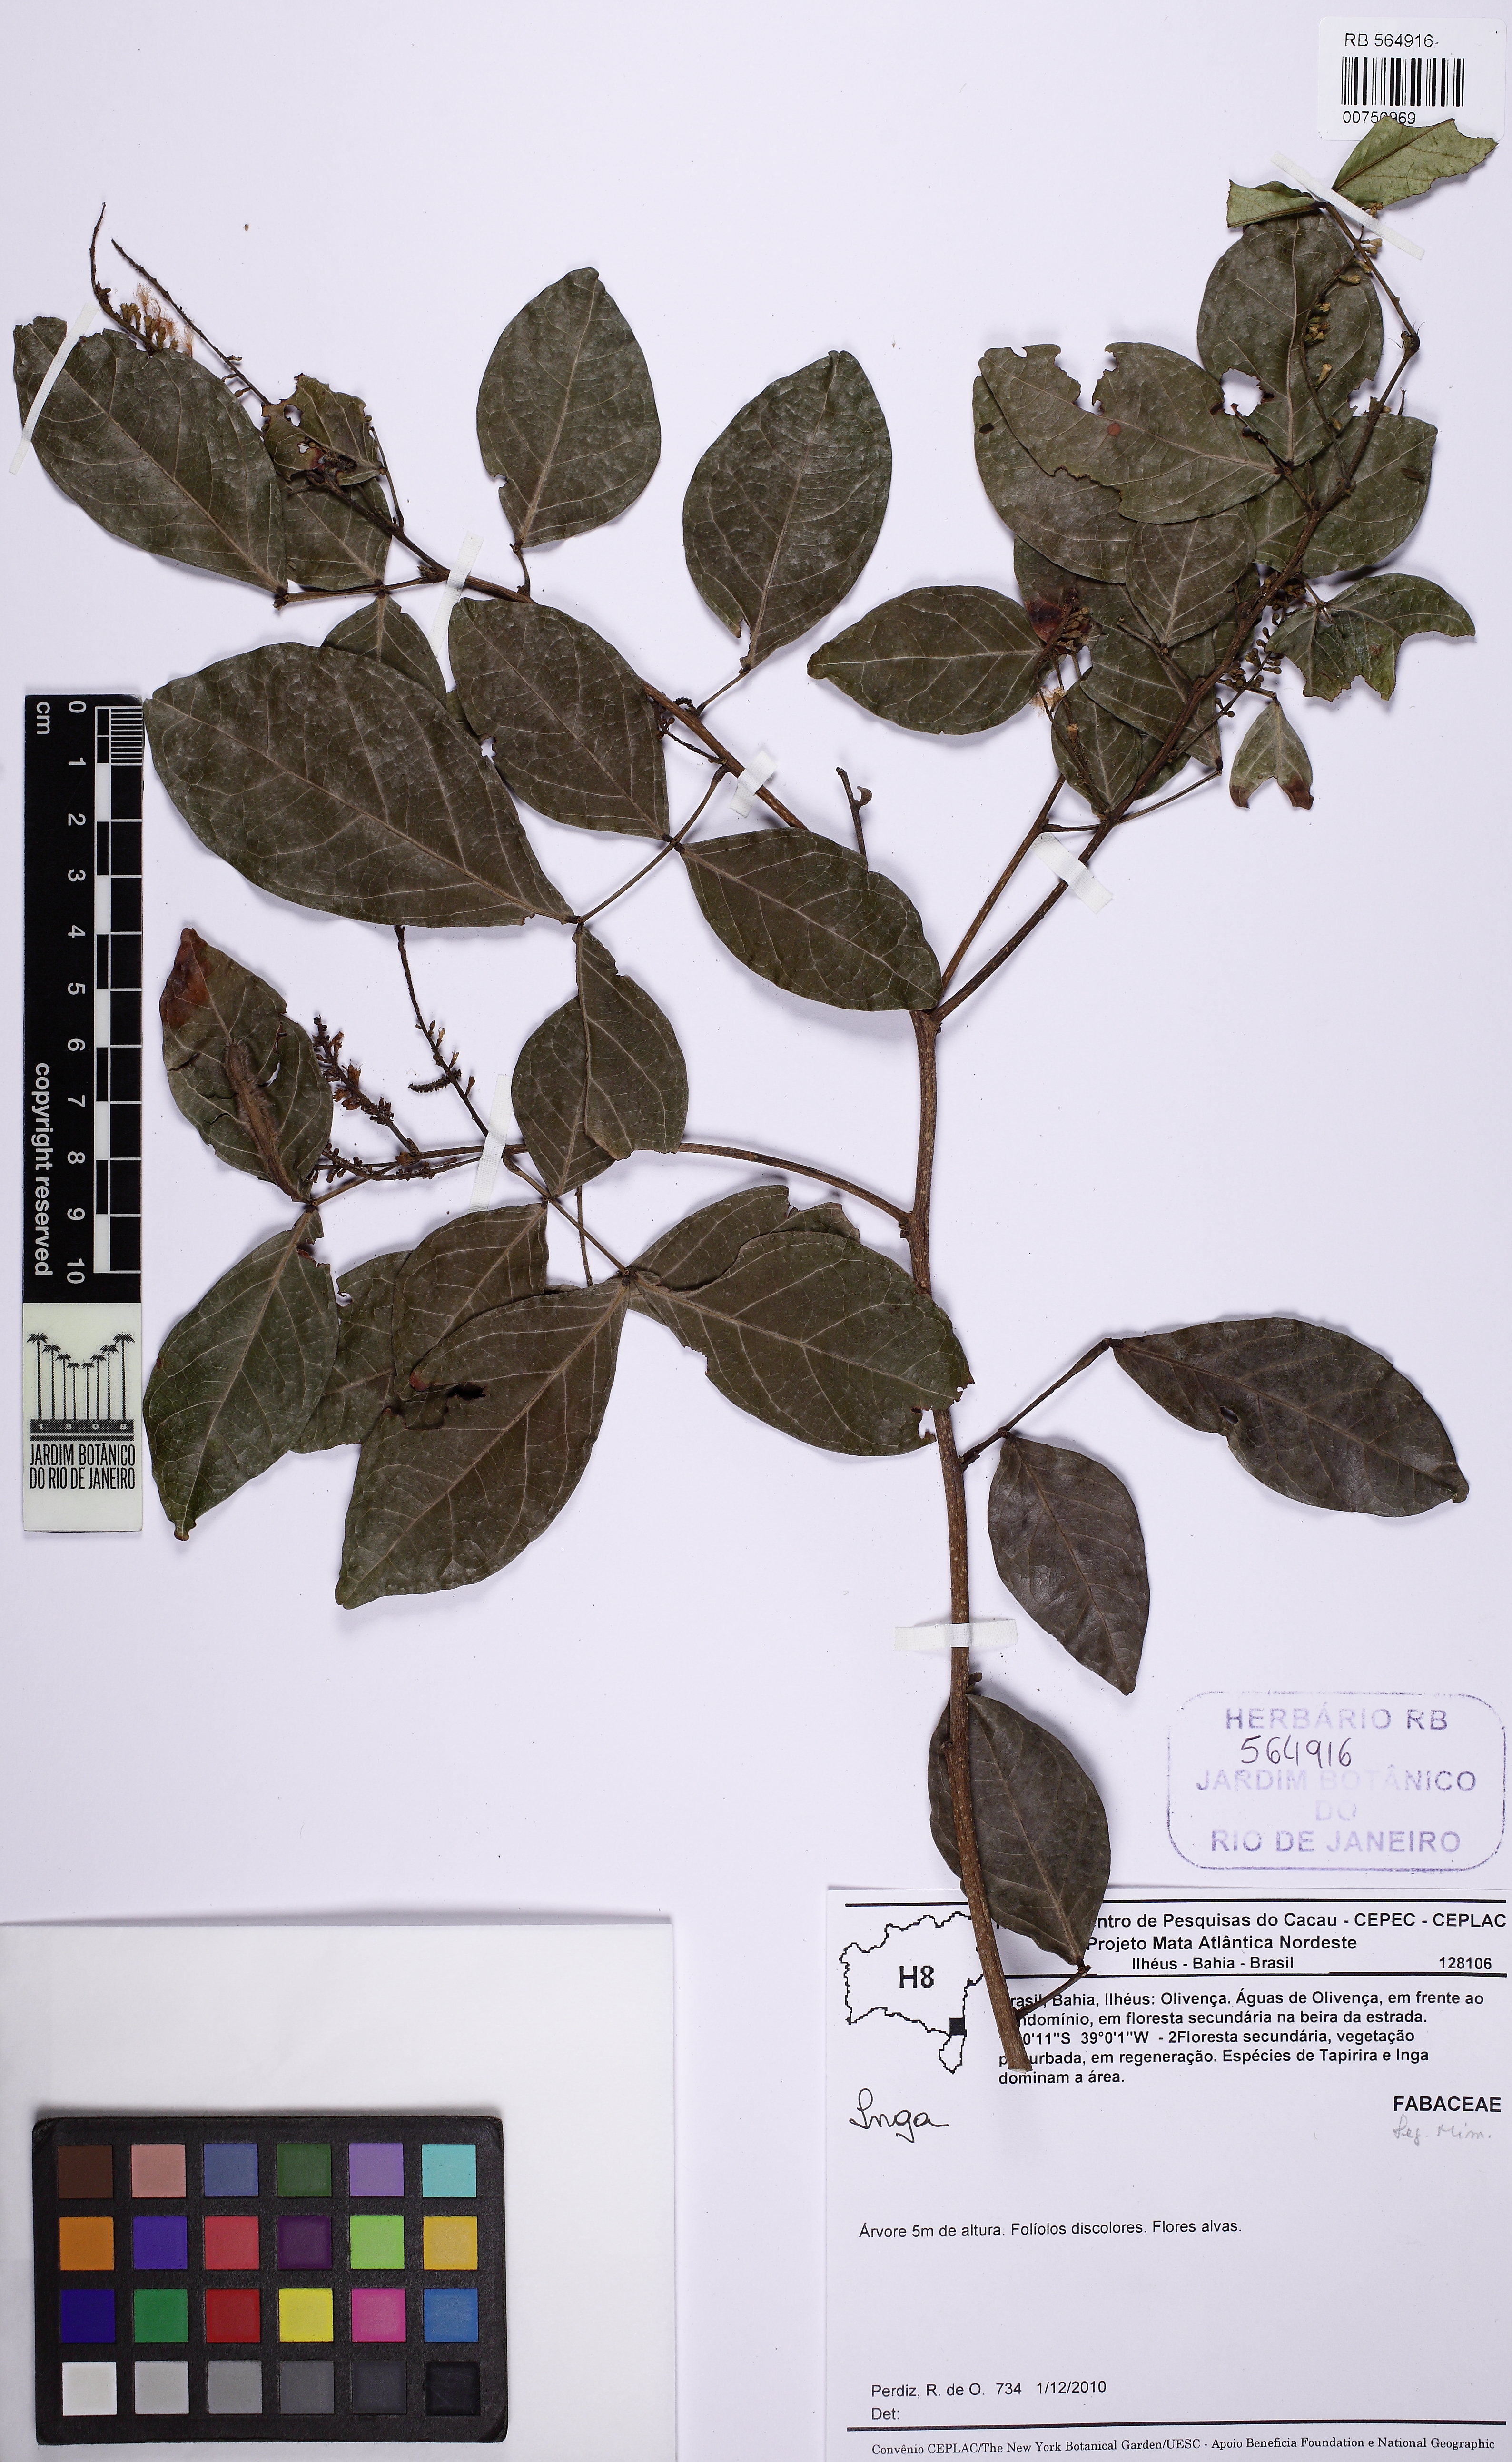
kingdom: Plantae
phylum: Tracheophyta
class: Magnoliopsida
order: Fabales
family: Fabaceae
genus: Inga
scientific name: Inga laurina
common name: Red wood
